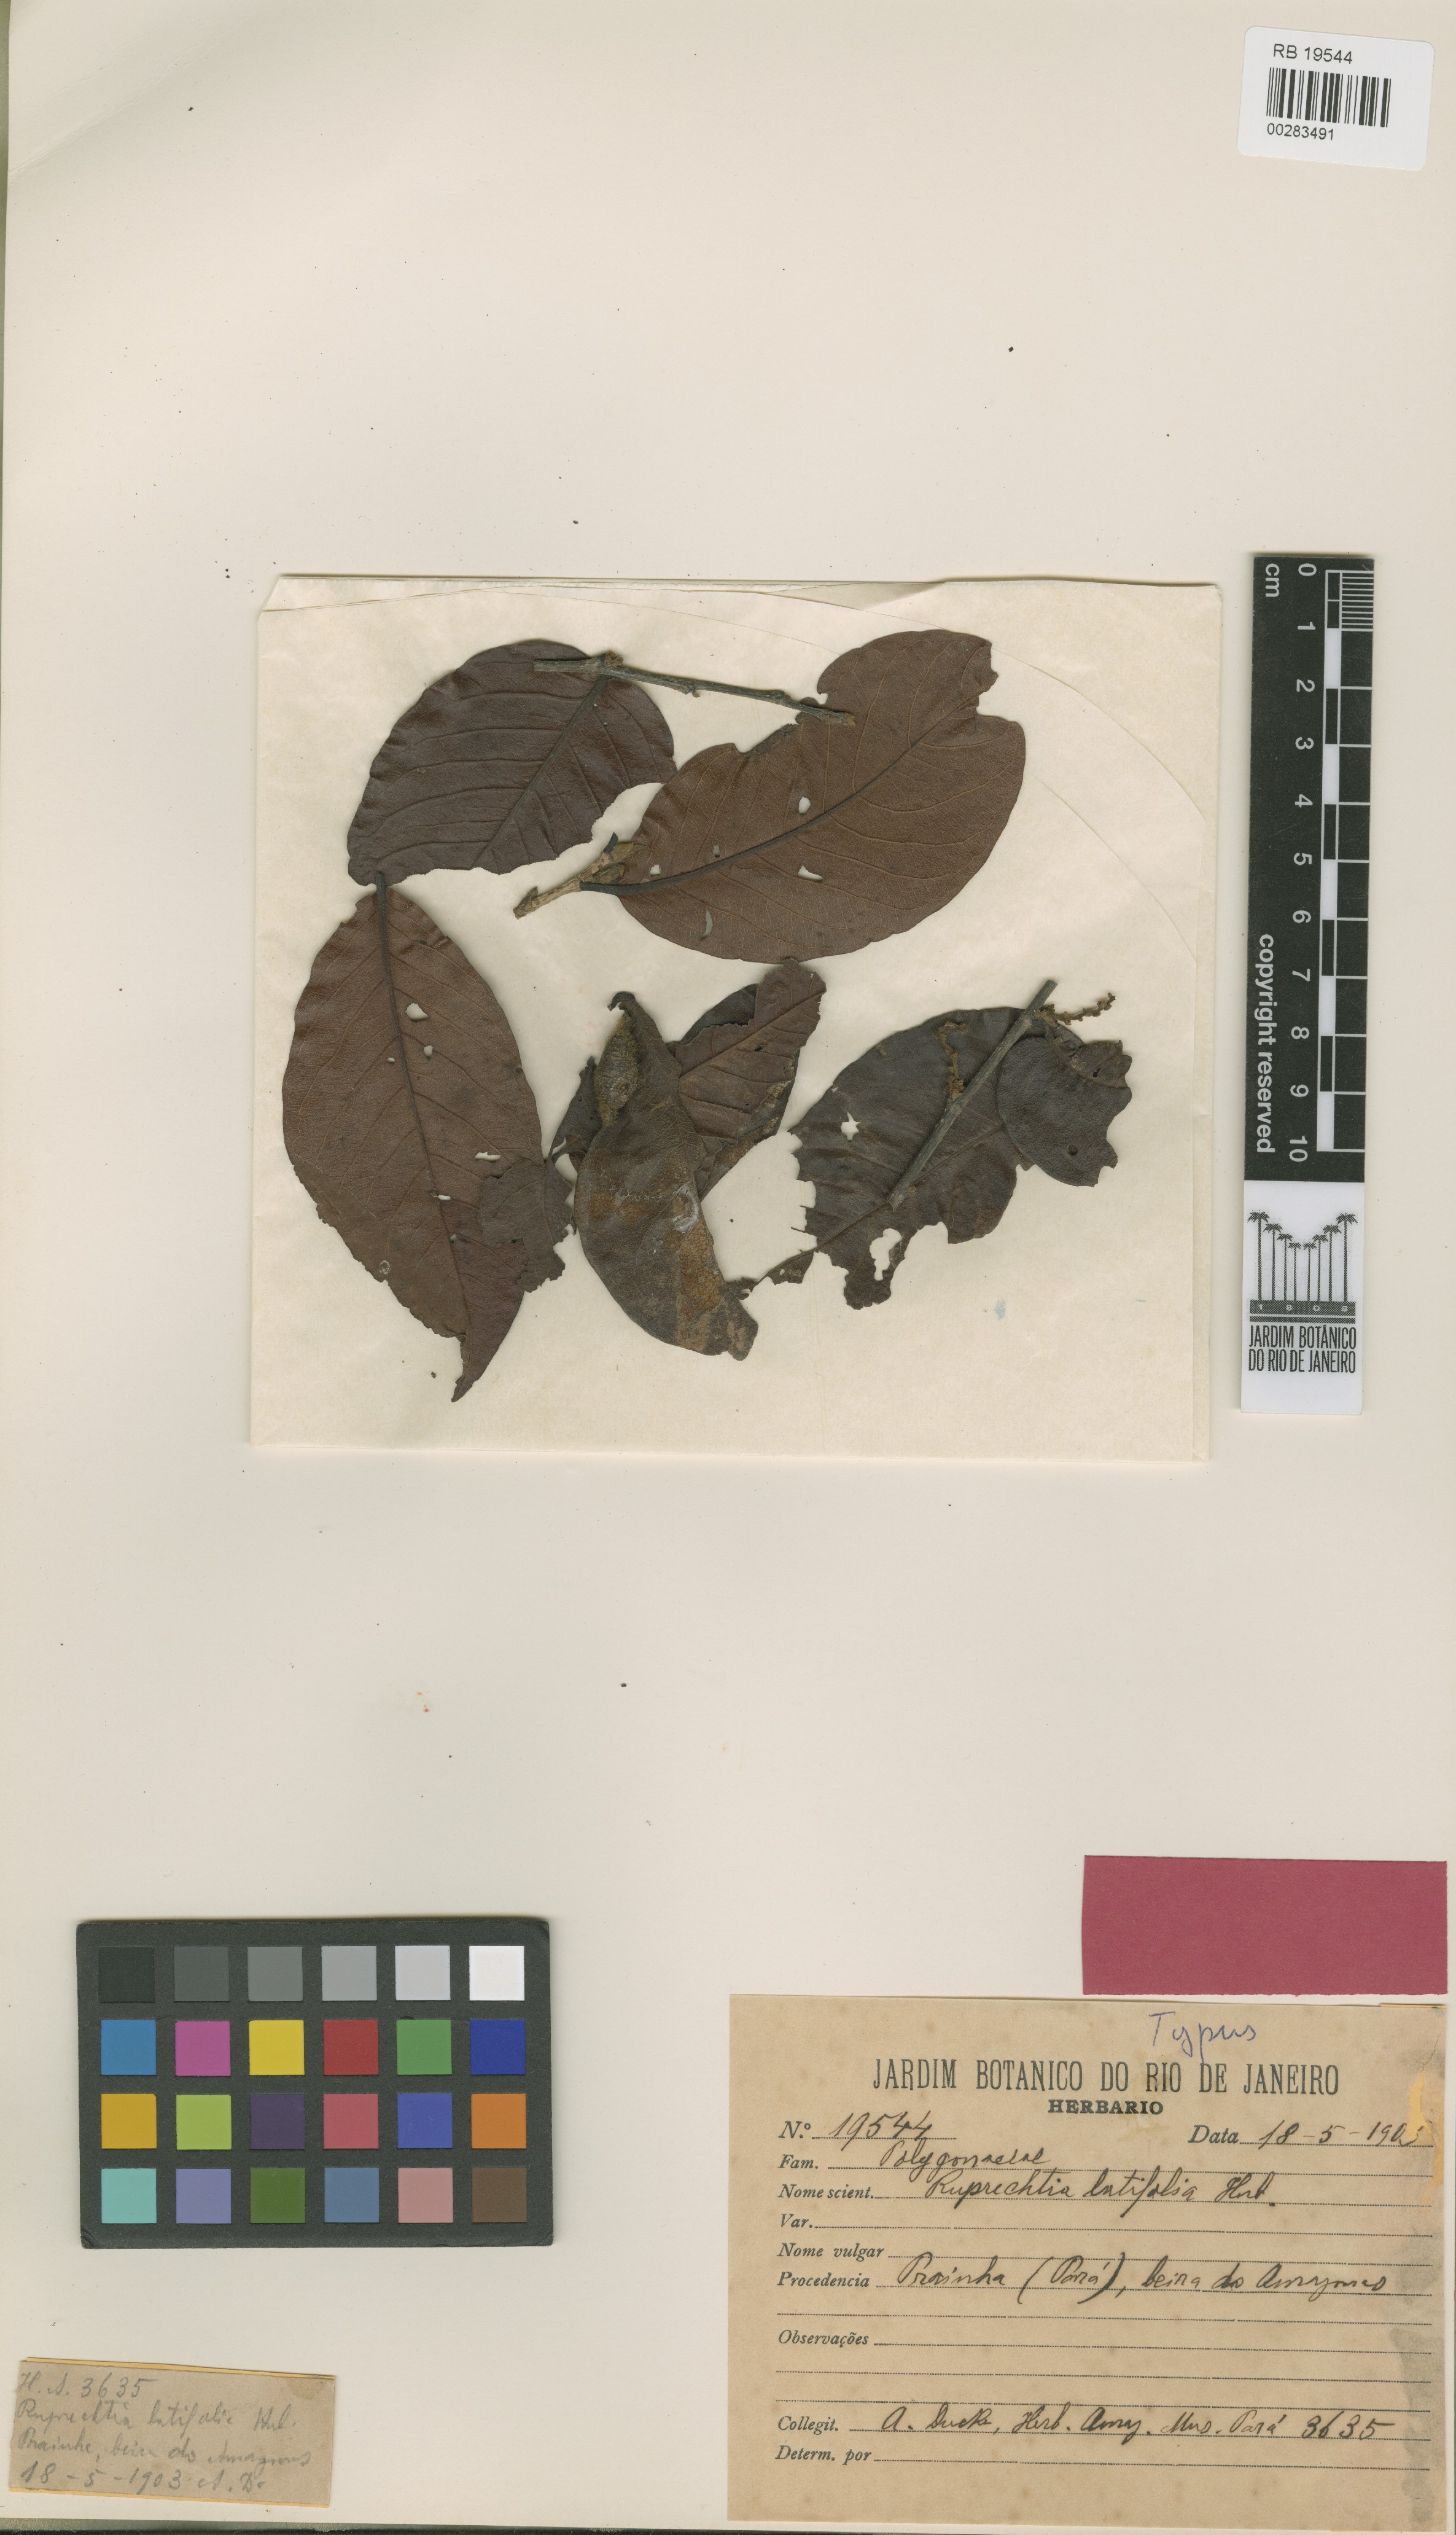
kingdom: Plantae
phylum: Tracheophyta
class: Magnoliopsida
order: Caryophyllales
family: Polygonaceae
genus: Ruprechtia
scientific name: Ruprechtia brachysepala
